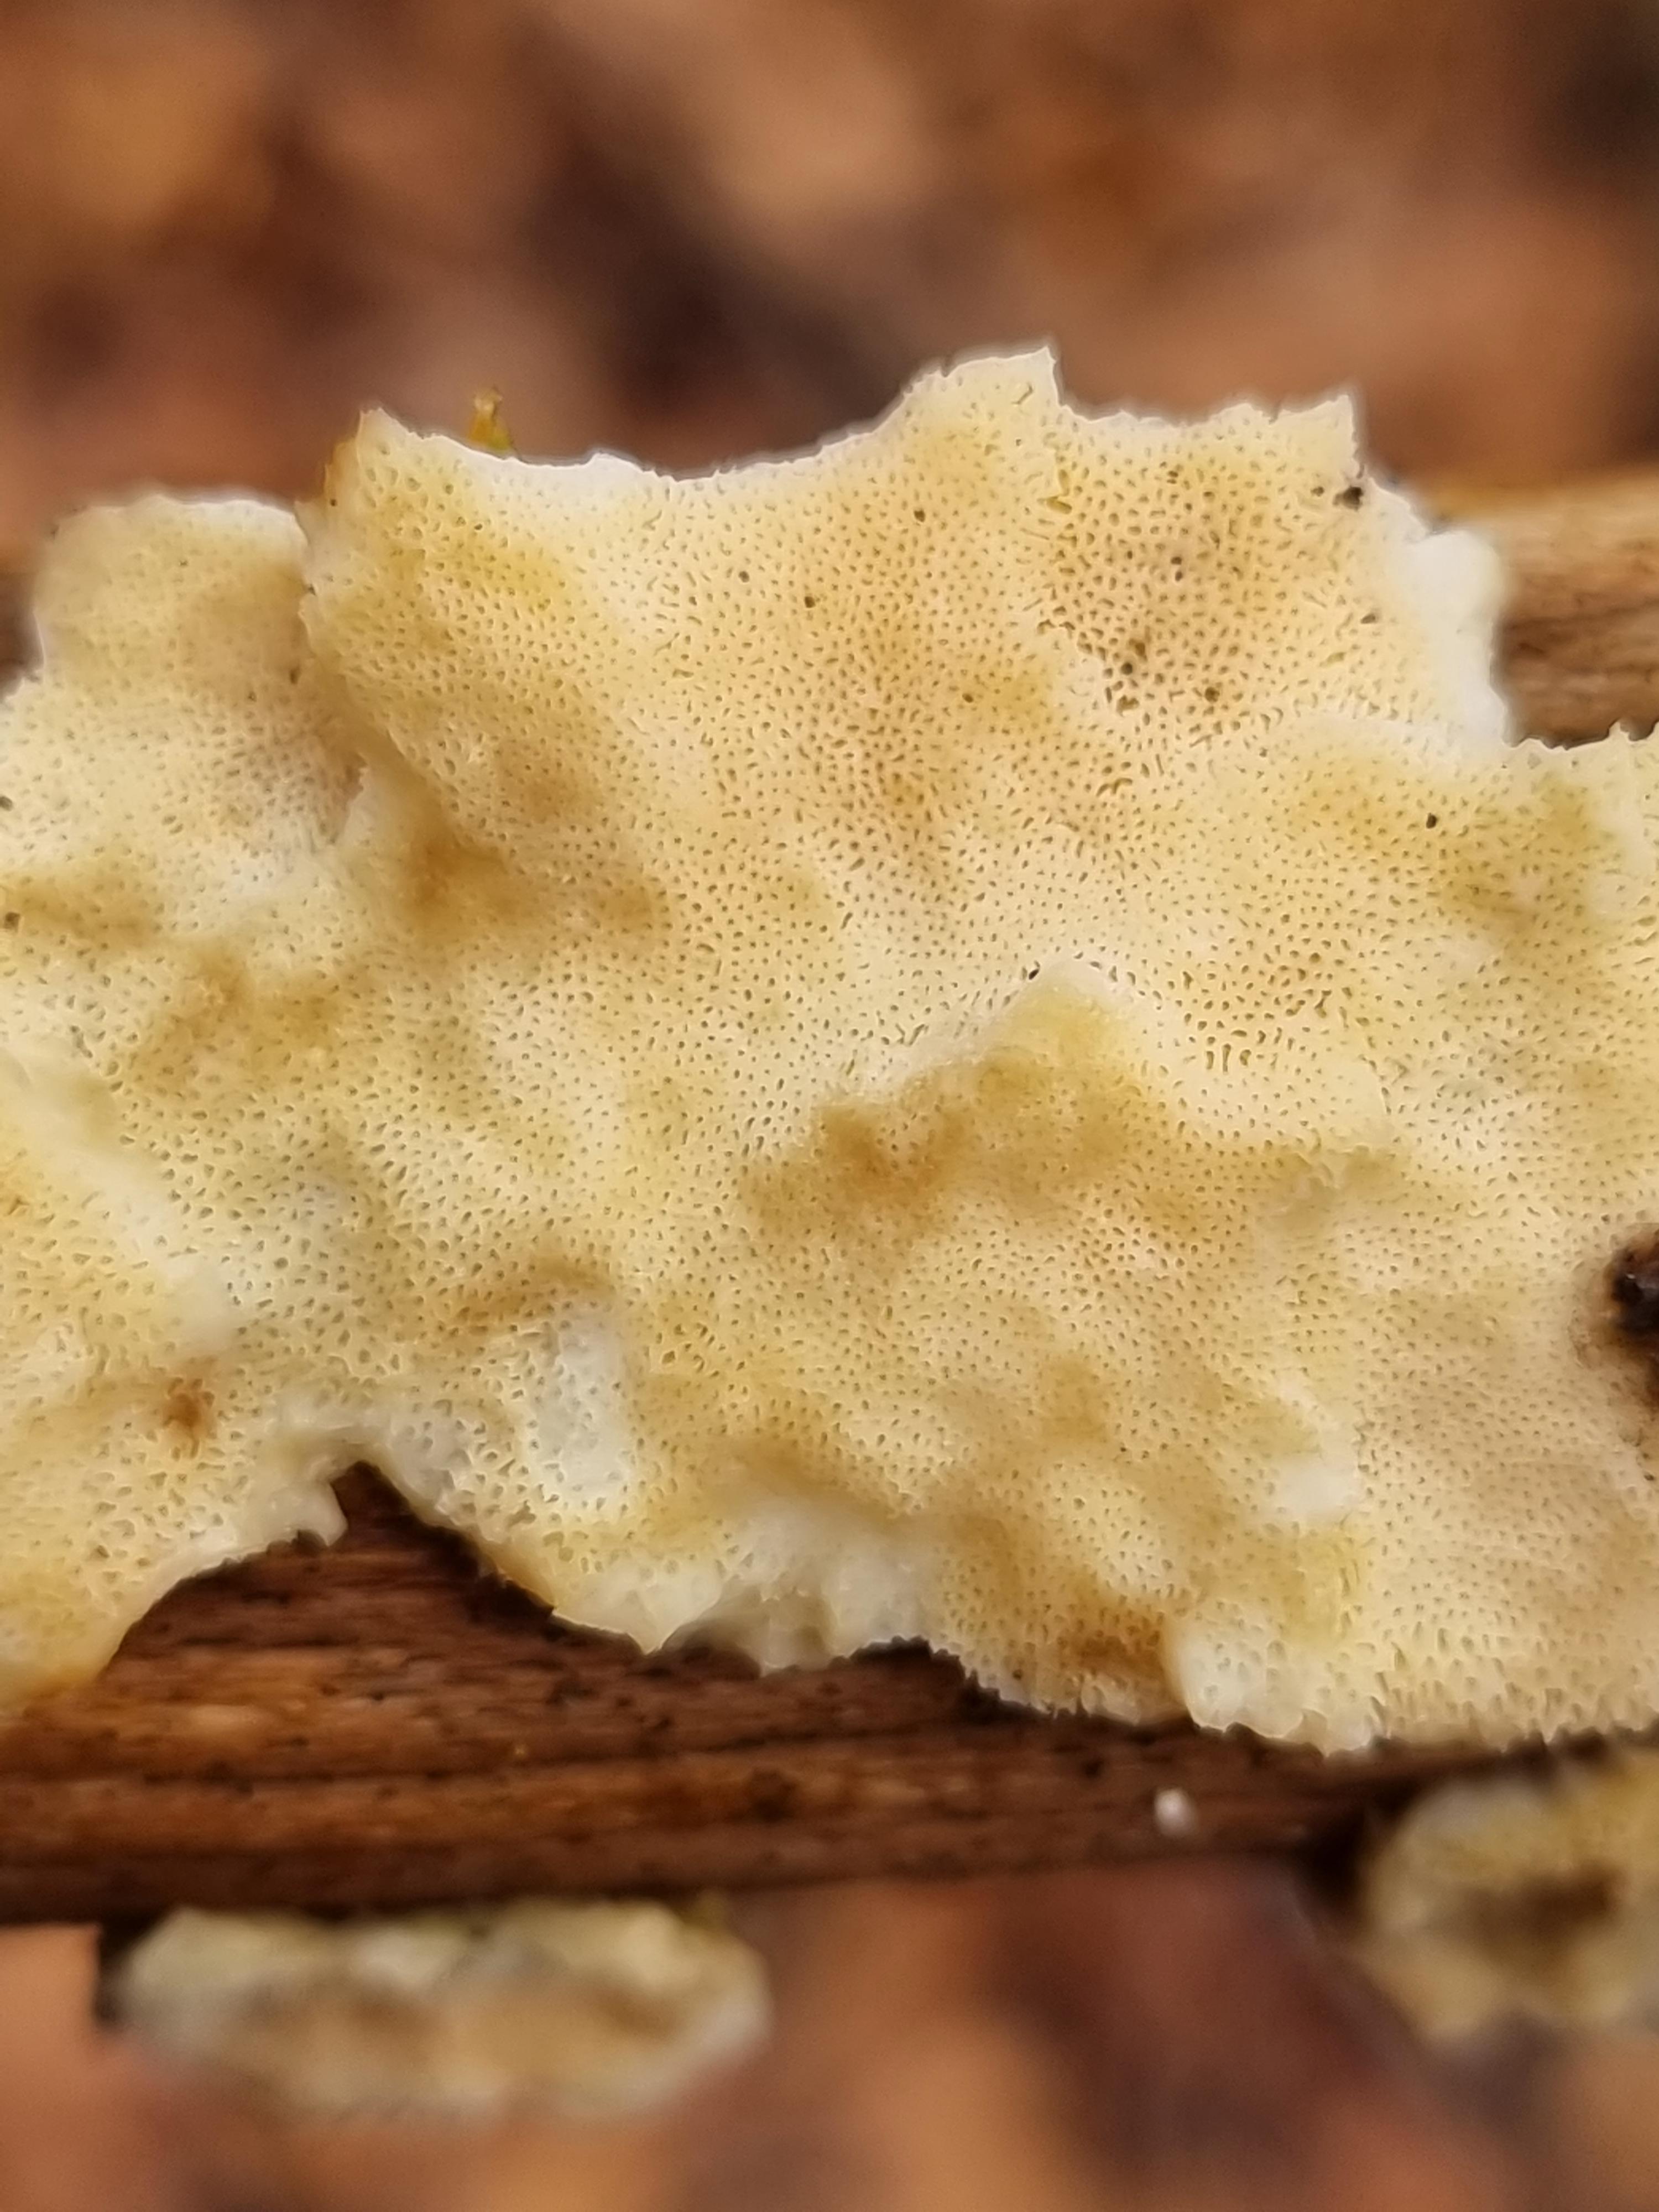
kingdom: Fungi
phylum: Basidiomycota
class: Agaricomycetes
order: Polyporales
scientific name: Polyporales
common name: poresvampordenen
